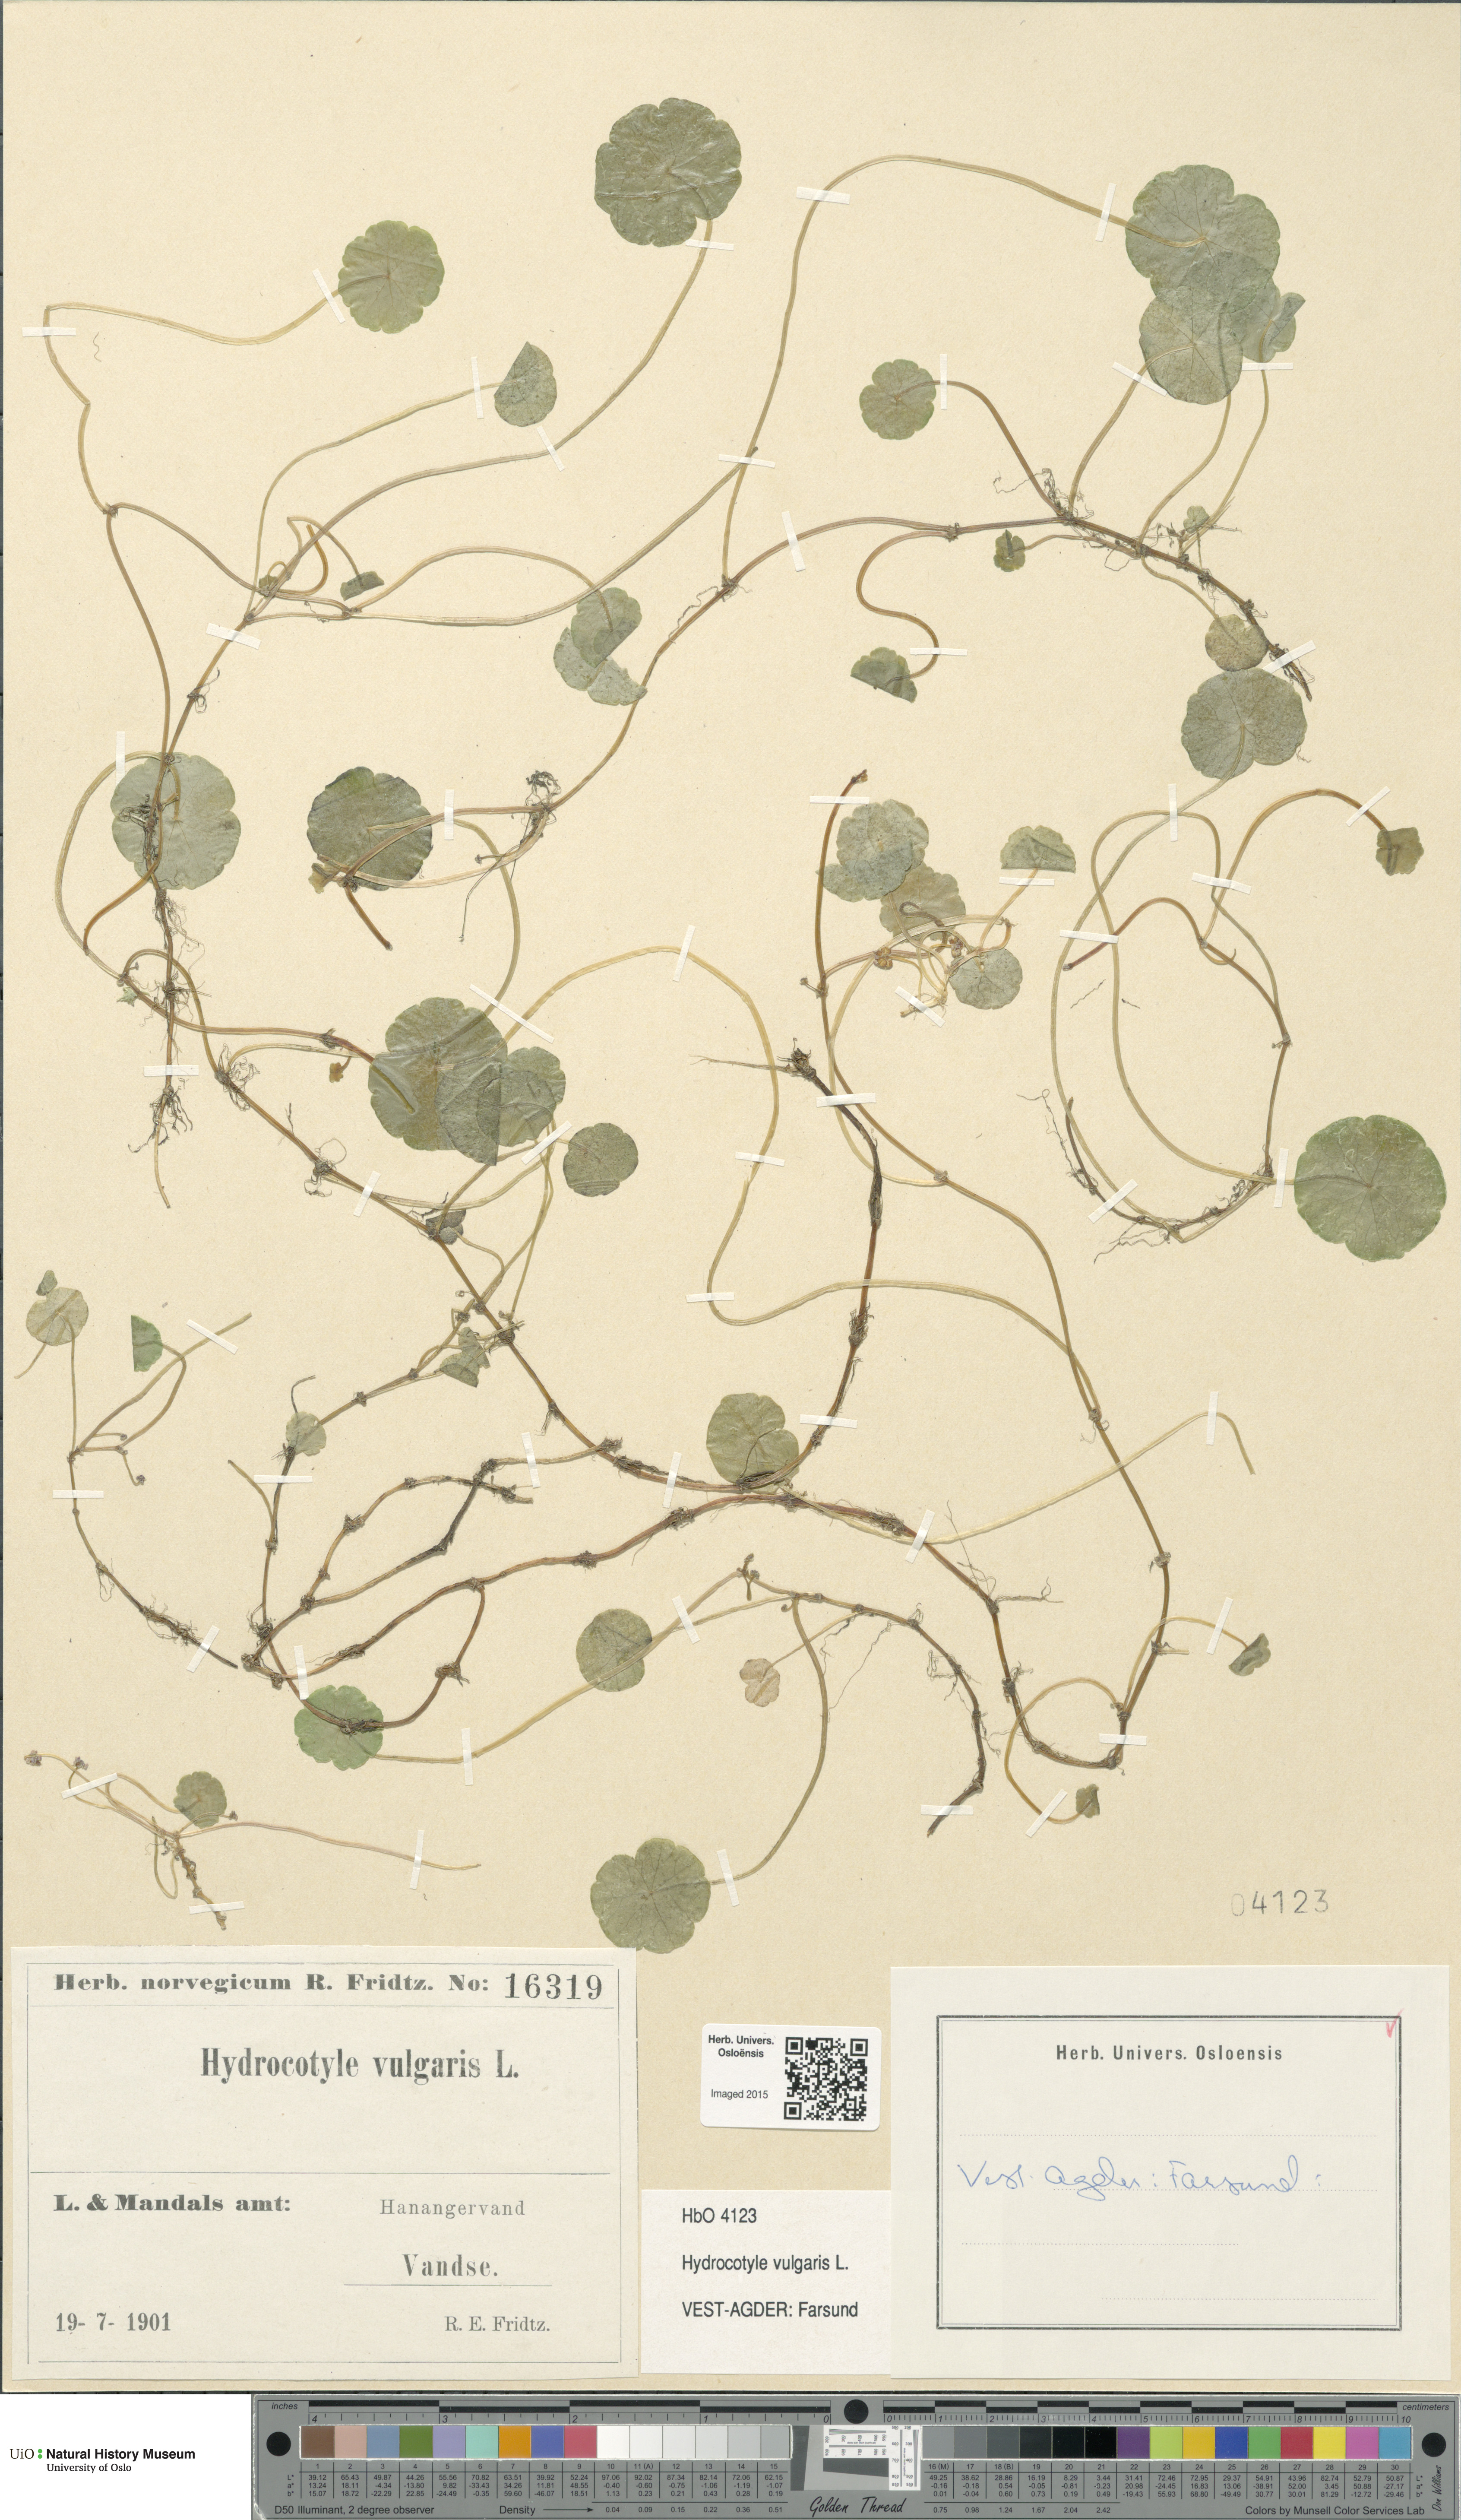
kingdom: Plantae
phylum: Tracheophyta
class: Magnoliopsida
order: Apiales
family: Araliaceae
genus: Hydrocotyle
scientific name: Hydrocotyle vulgaris
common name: Marsh pennywort
